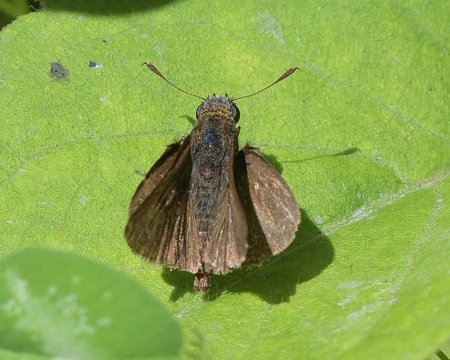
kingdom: Animalia
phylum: Arthropoda
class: Insecta
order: Lepidoptera
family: Hesperiidae
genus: Euphyes
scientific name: Euphyes vestris
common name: Dun Skipper
